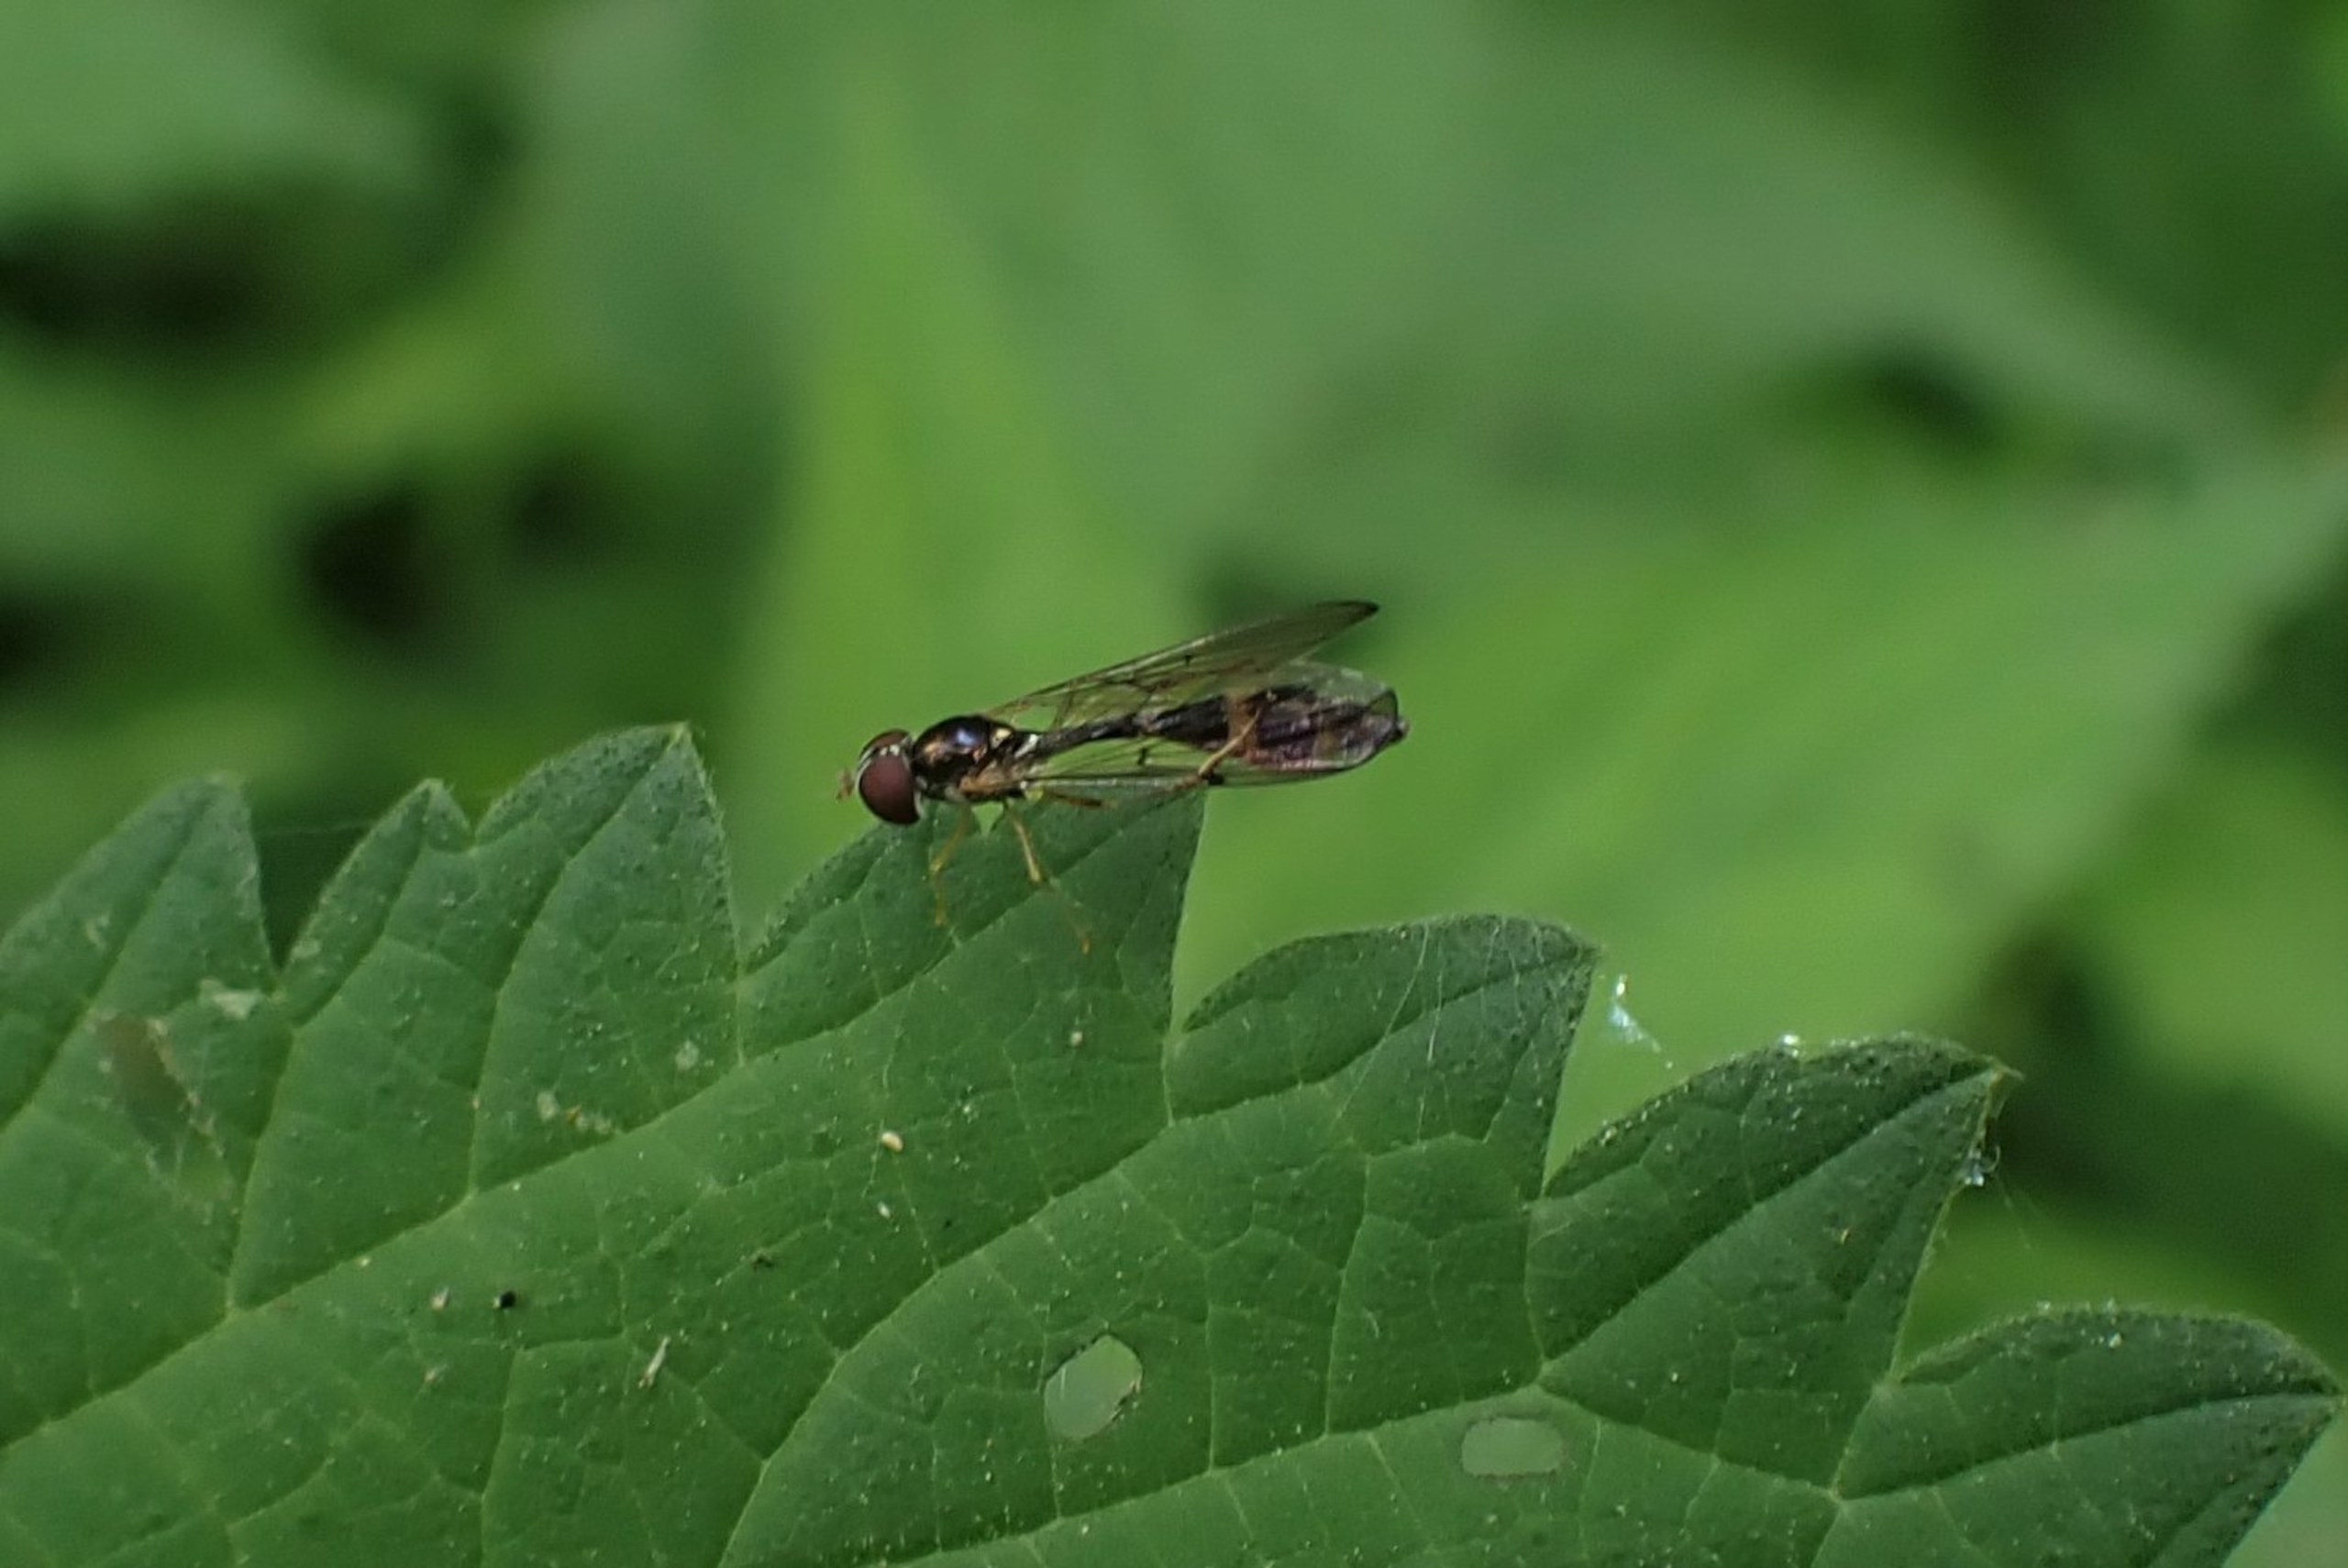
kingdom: Animalia
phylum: Arthropoda
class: Insecta
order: Diptera
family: Syrphidae
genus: Baccha
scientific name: Baccha elongata
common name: Mat spydsvirreflue
